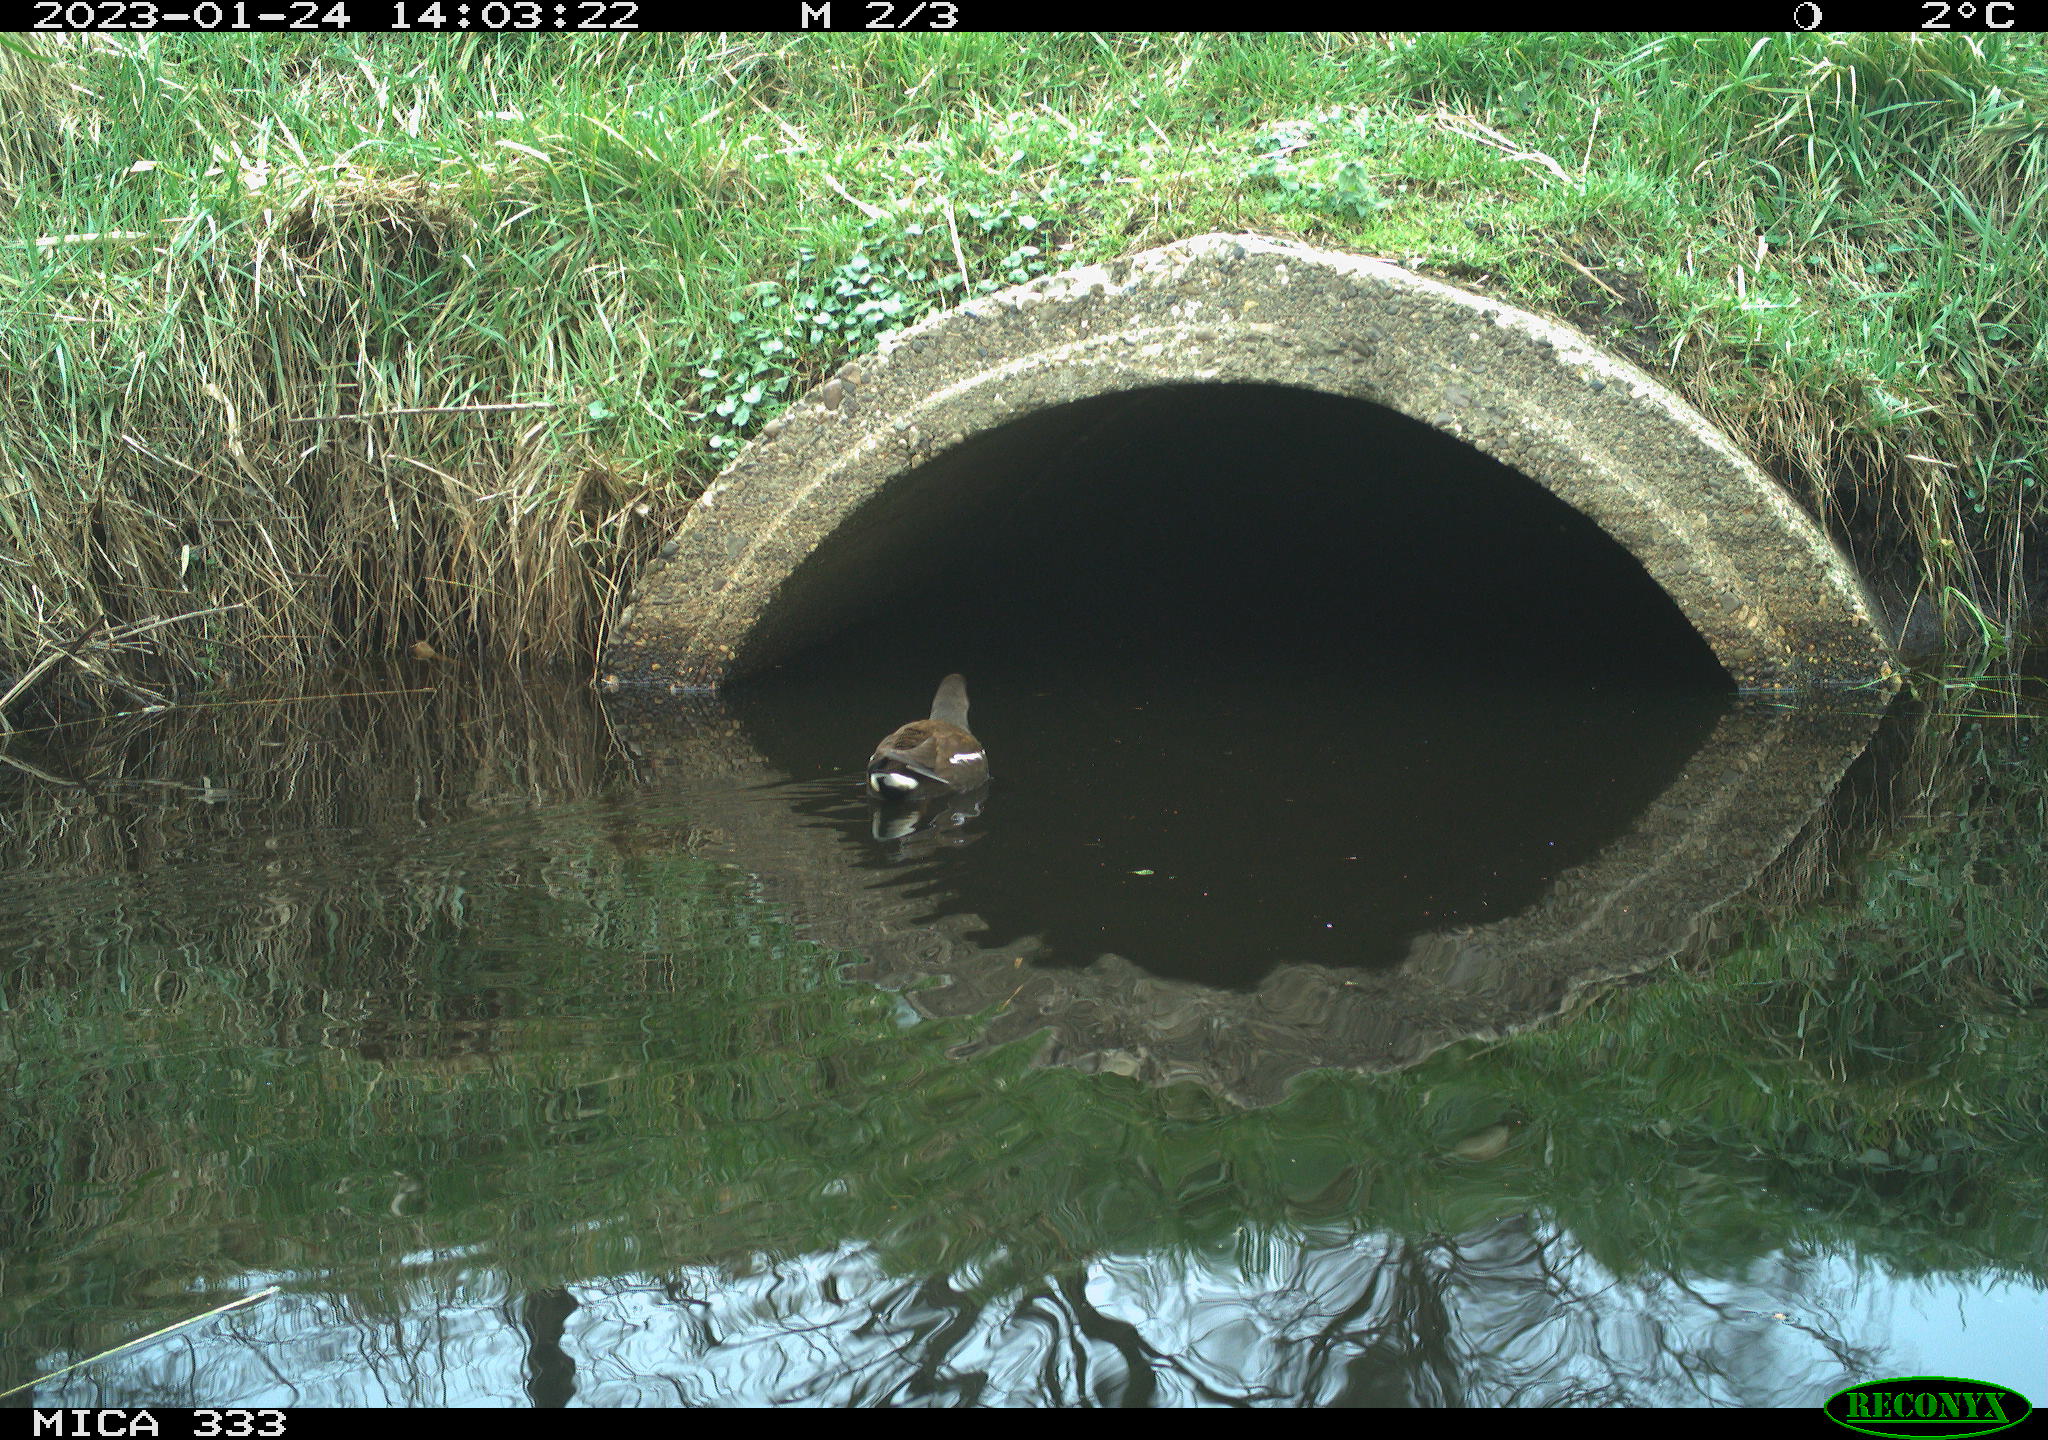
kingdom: Animalia
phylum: Chordata
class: Aves
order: Gruiformes
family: Rallidae
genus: Gallinula
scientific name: Gallinula chloropus
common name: Common moorhen
